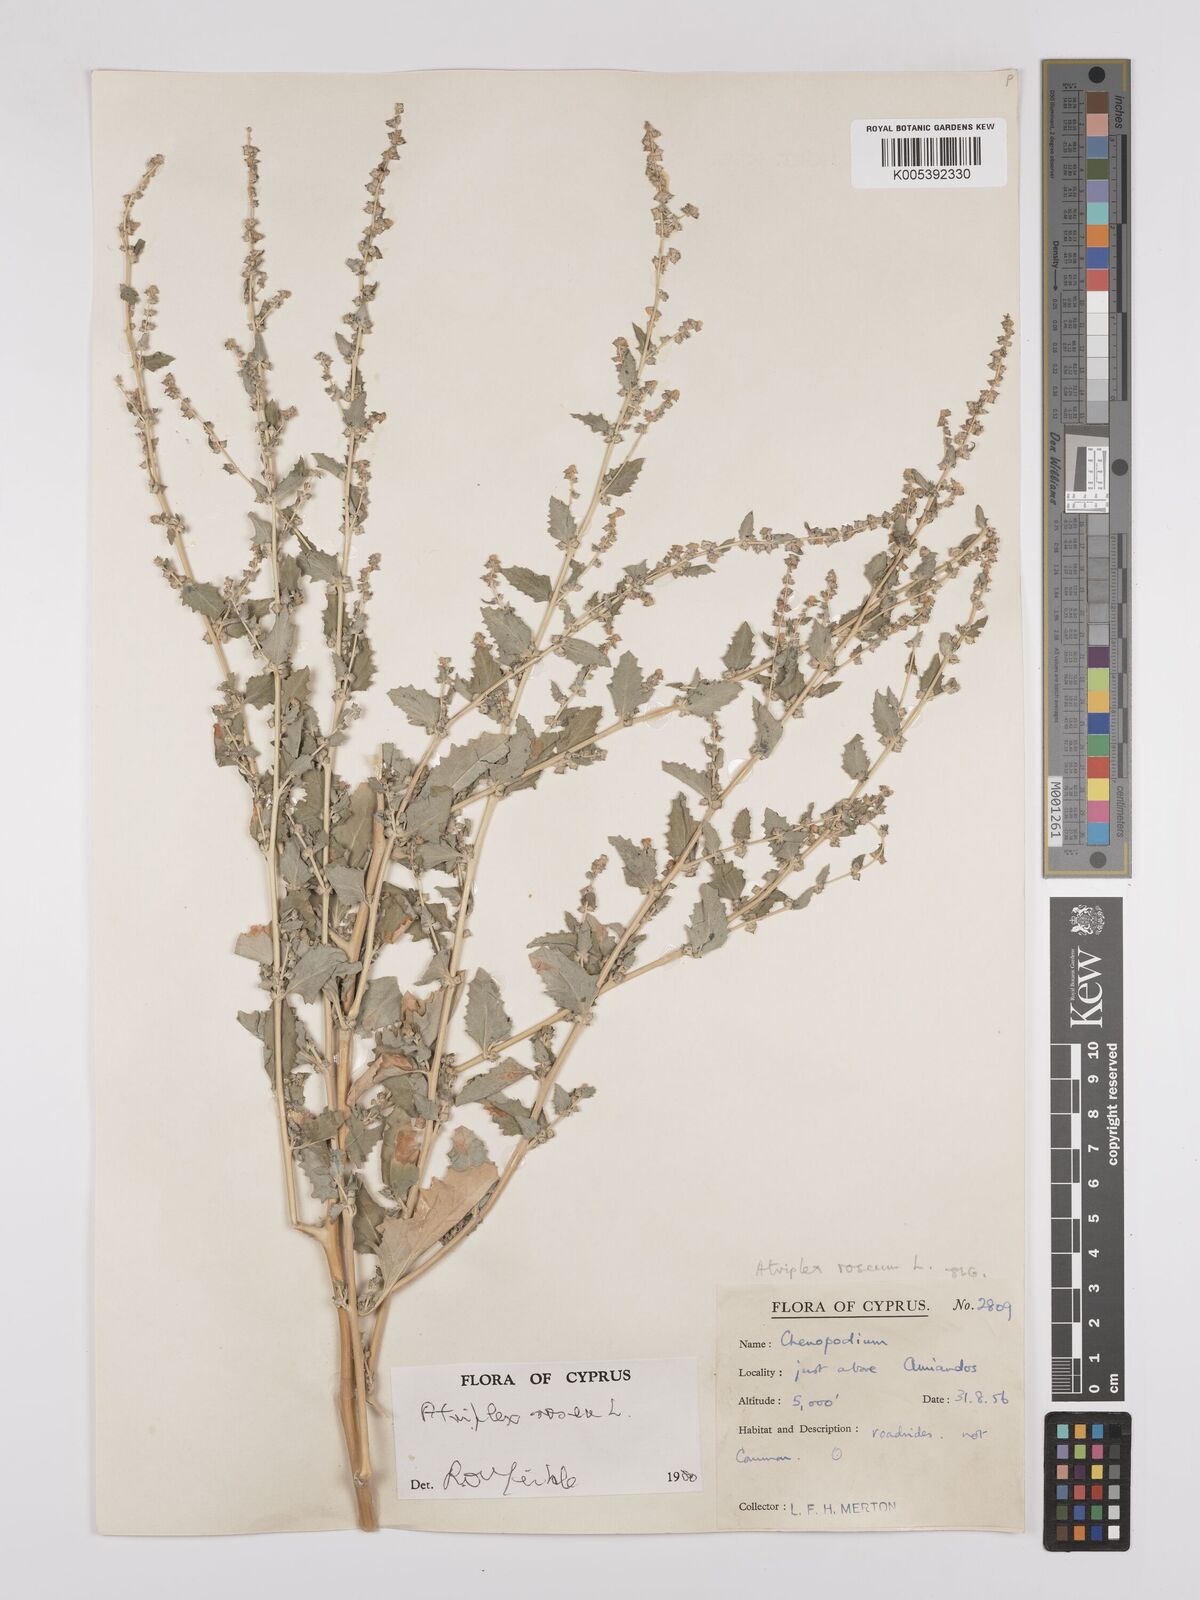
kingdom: Plantae
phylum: Tracheophyta
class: Magnoliopsida
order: Caryophyllales
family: Amaranthaceae
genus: Atriplex
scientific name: Atriplex
